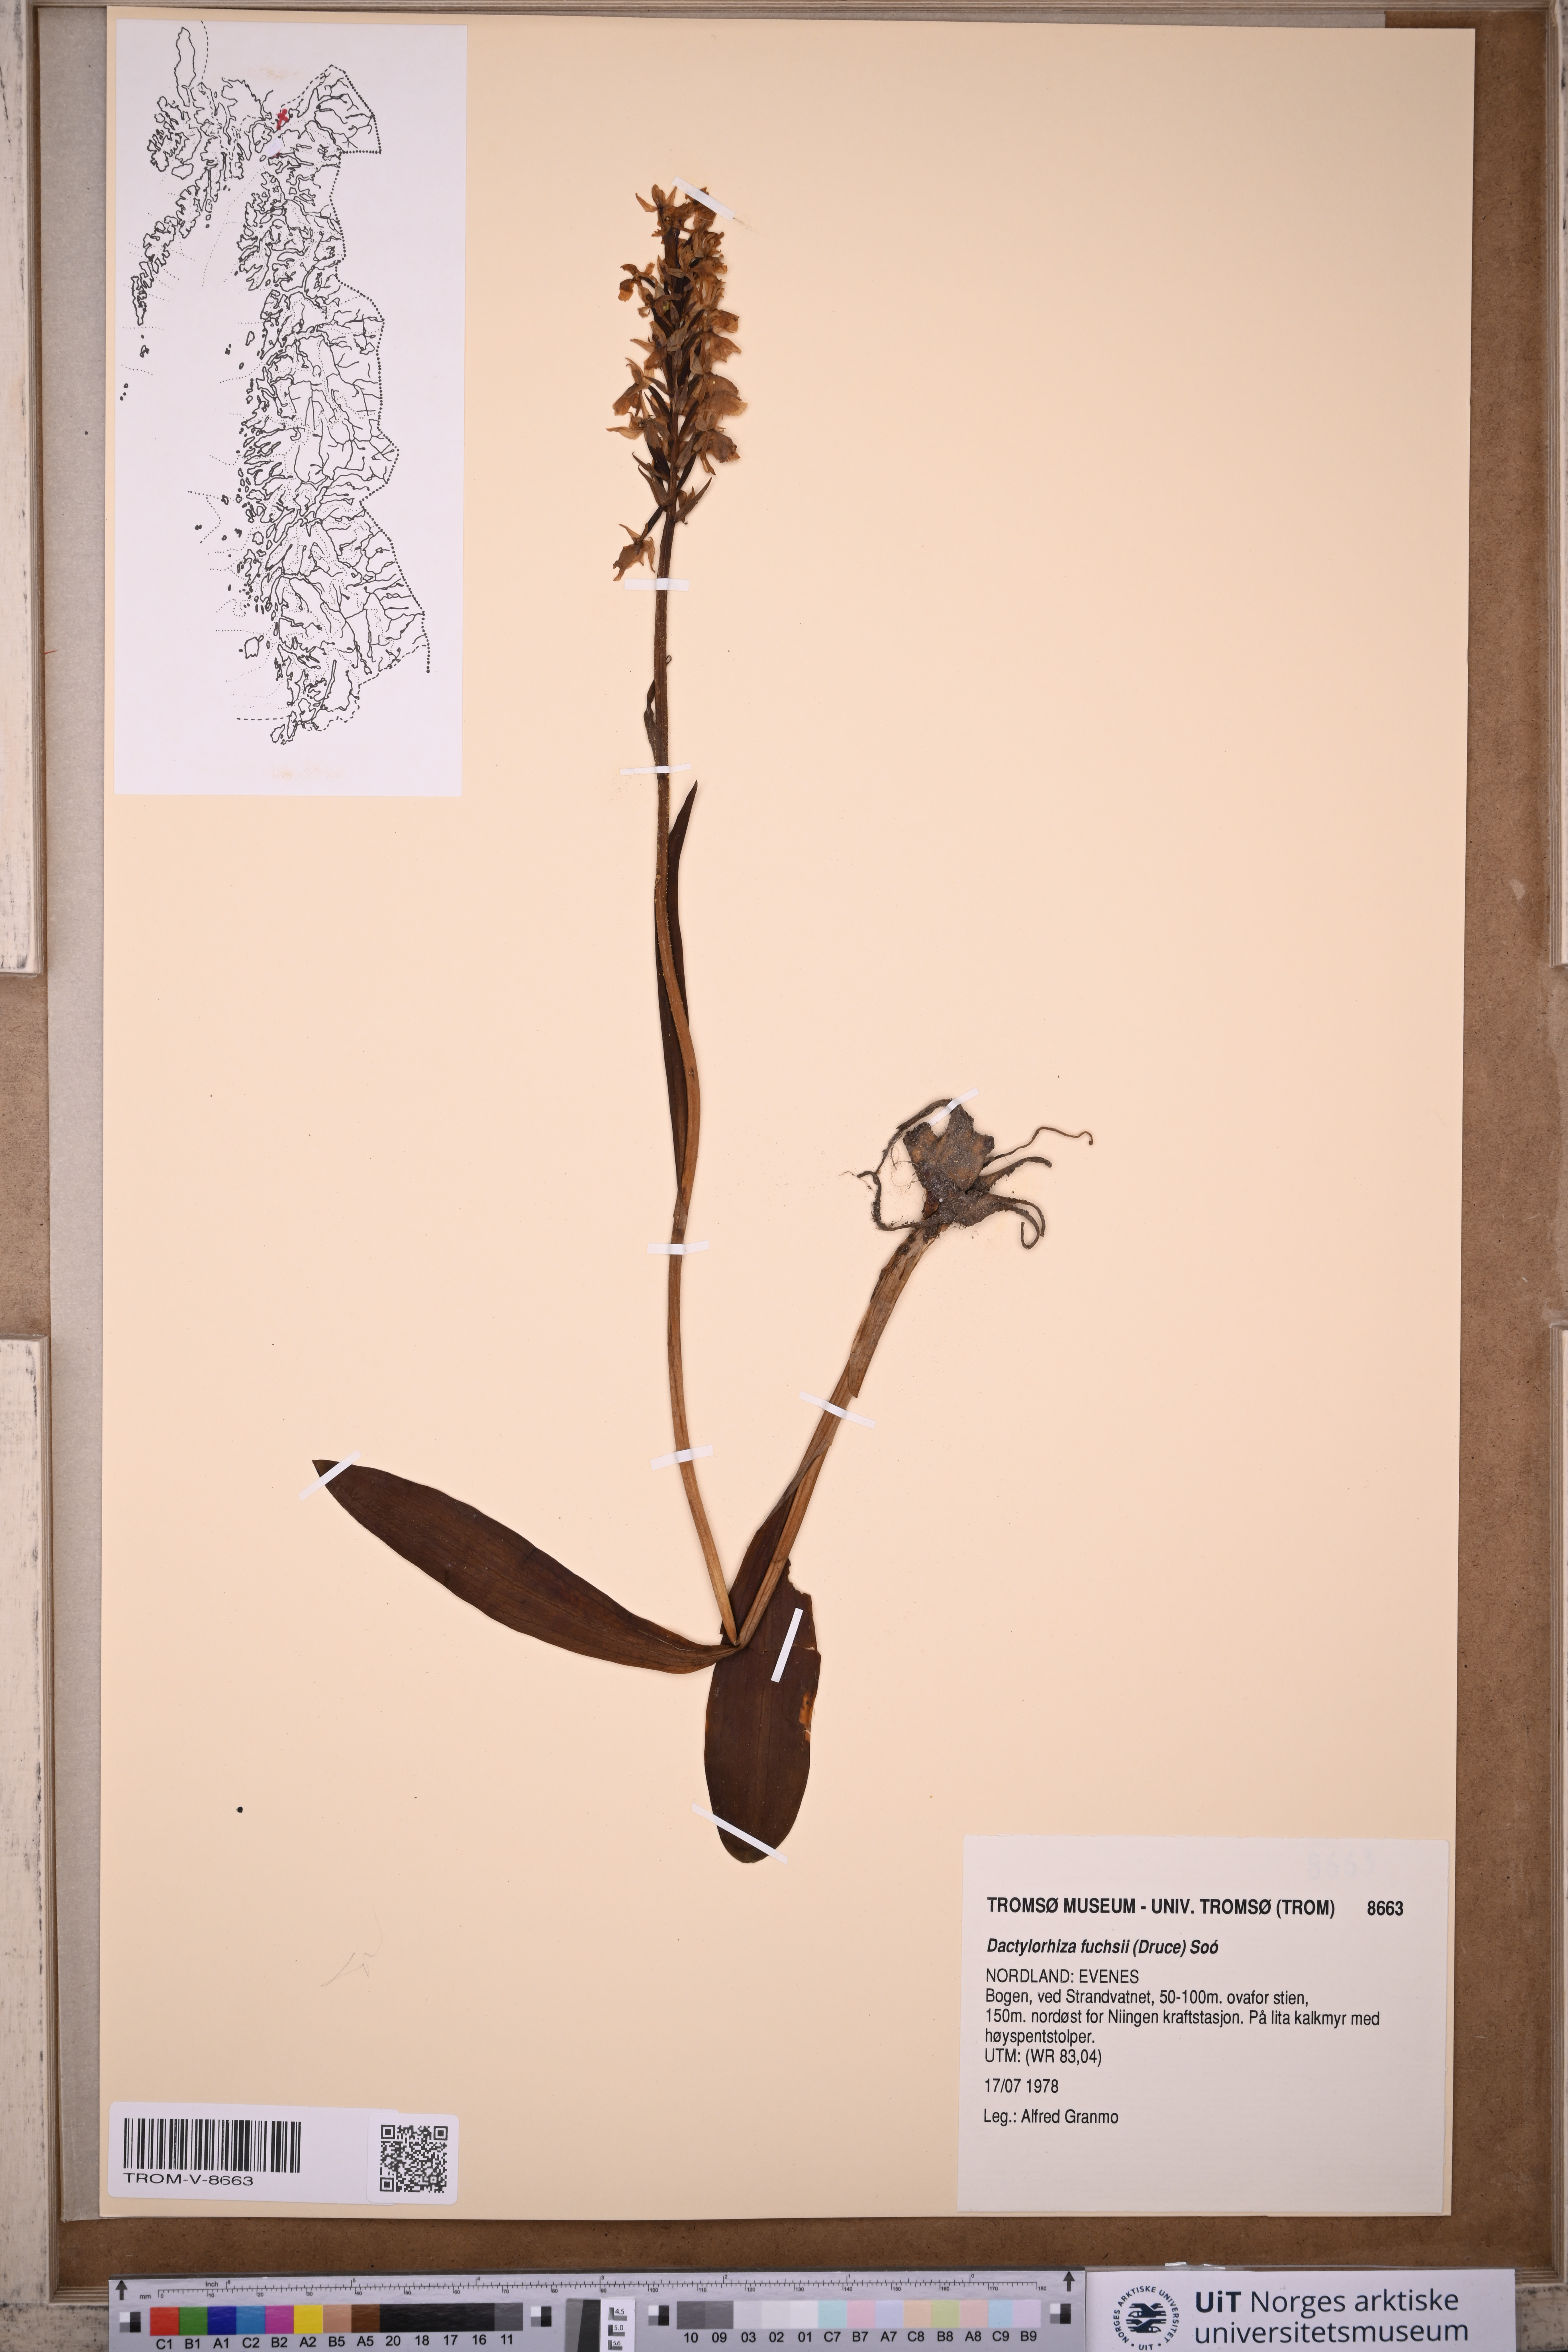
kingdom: Plantae
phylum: Tracheophyta
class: Liliopsida
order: Asparagales
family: Orchidaceae
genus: Dactylorhiza
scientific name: Dactylorhiza maculata
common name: Heath spotted-orchid
